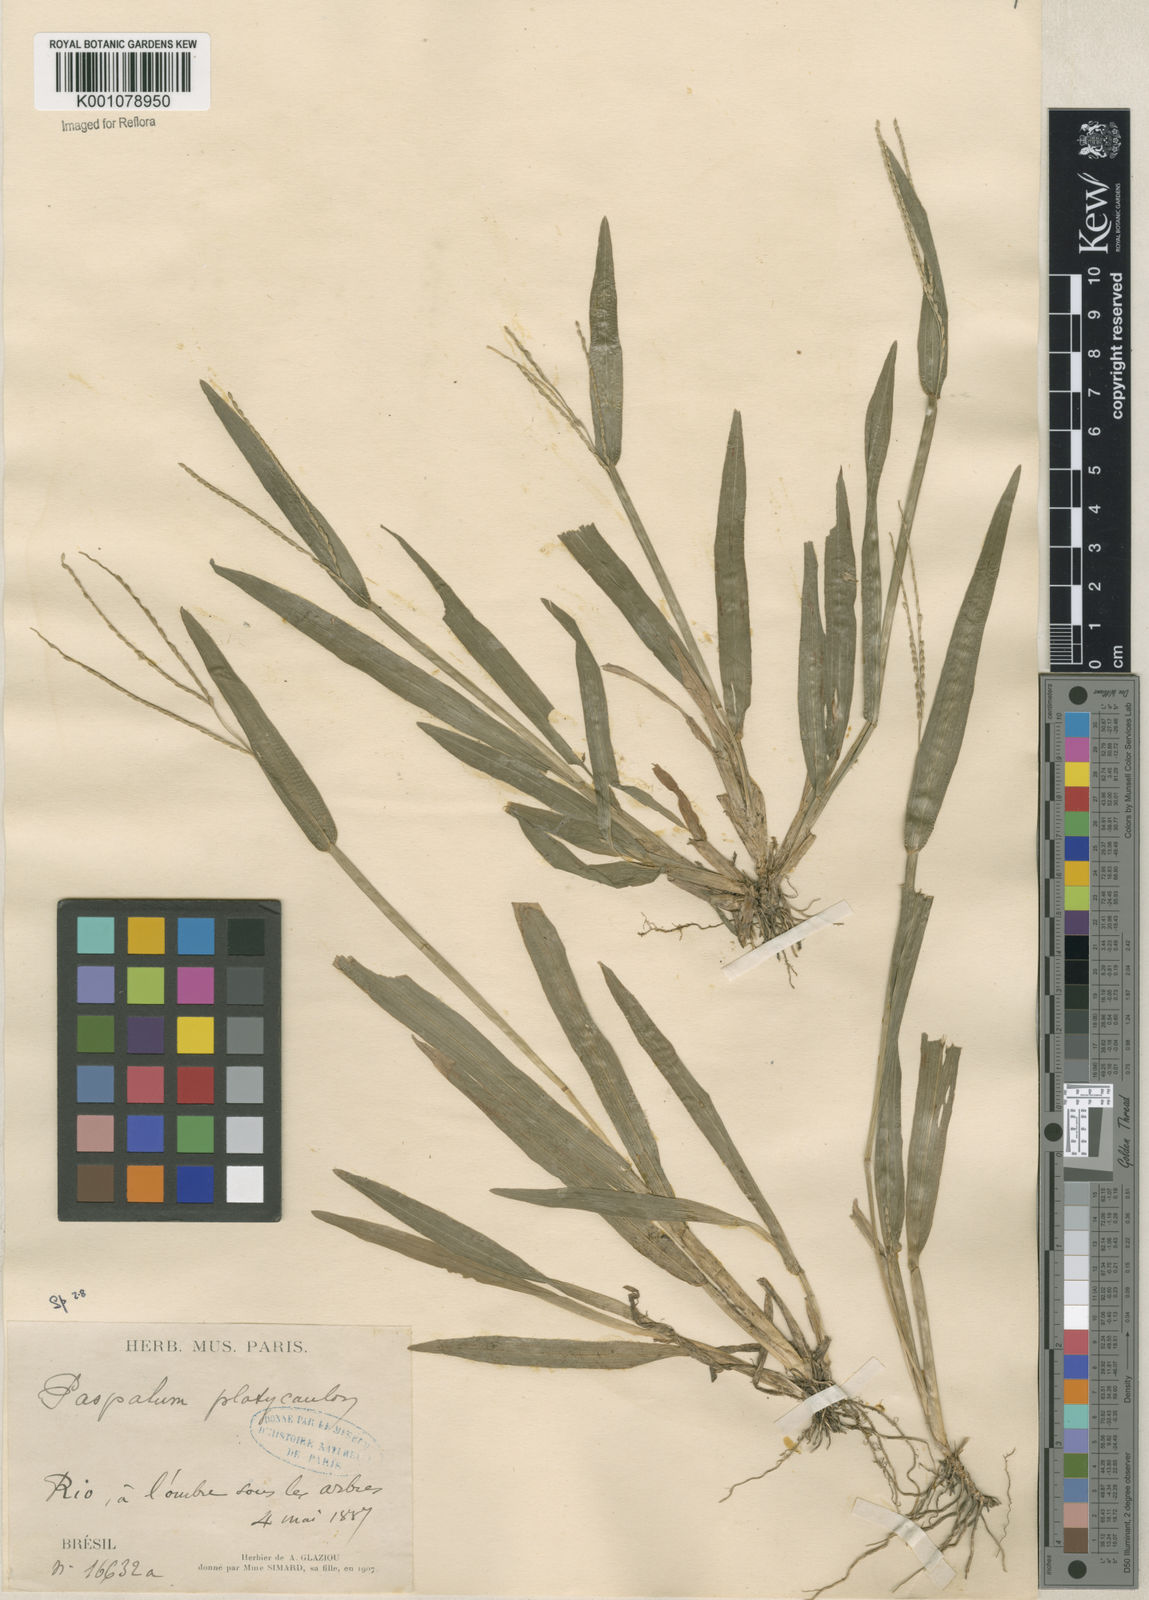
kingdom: Plantae
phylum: Tracheophyta
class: Liliopsida
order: Poales
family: Poaceae
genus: Axonopus
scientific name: Axonopus compressus
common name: American carpet grass
